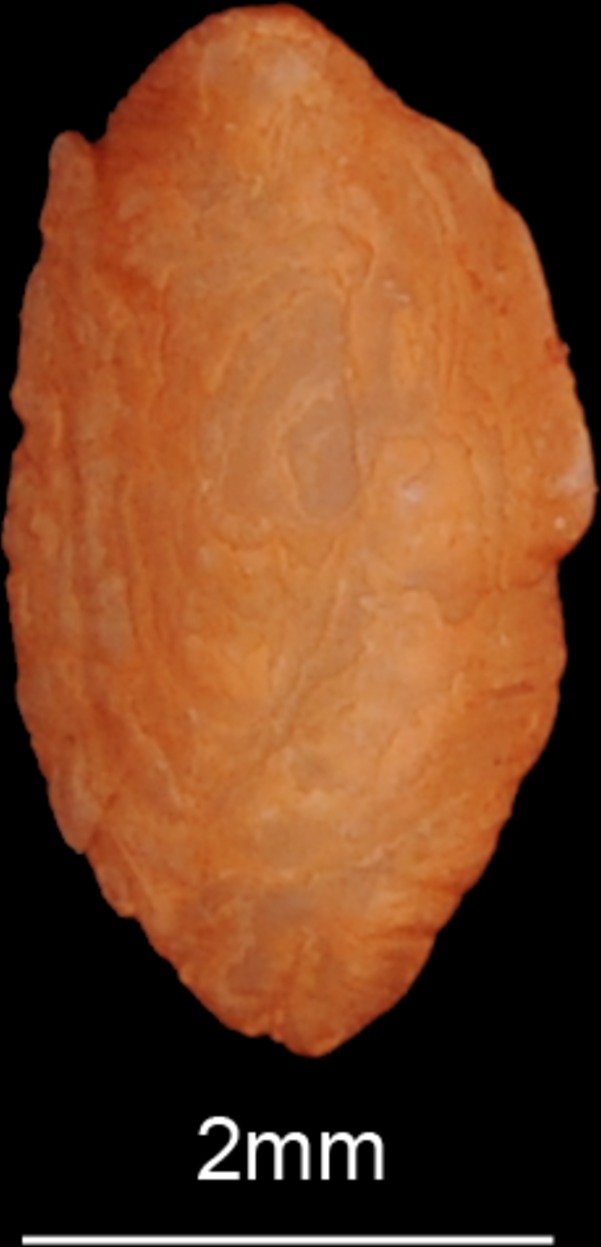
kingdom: Animalia
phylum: Chordata
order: Anguilliformes
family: Anguillidae
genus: Anguilla
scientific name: Anguilla anguilla
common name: European eel
